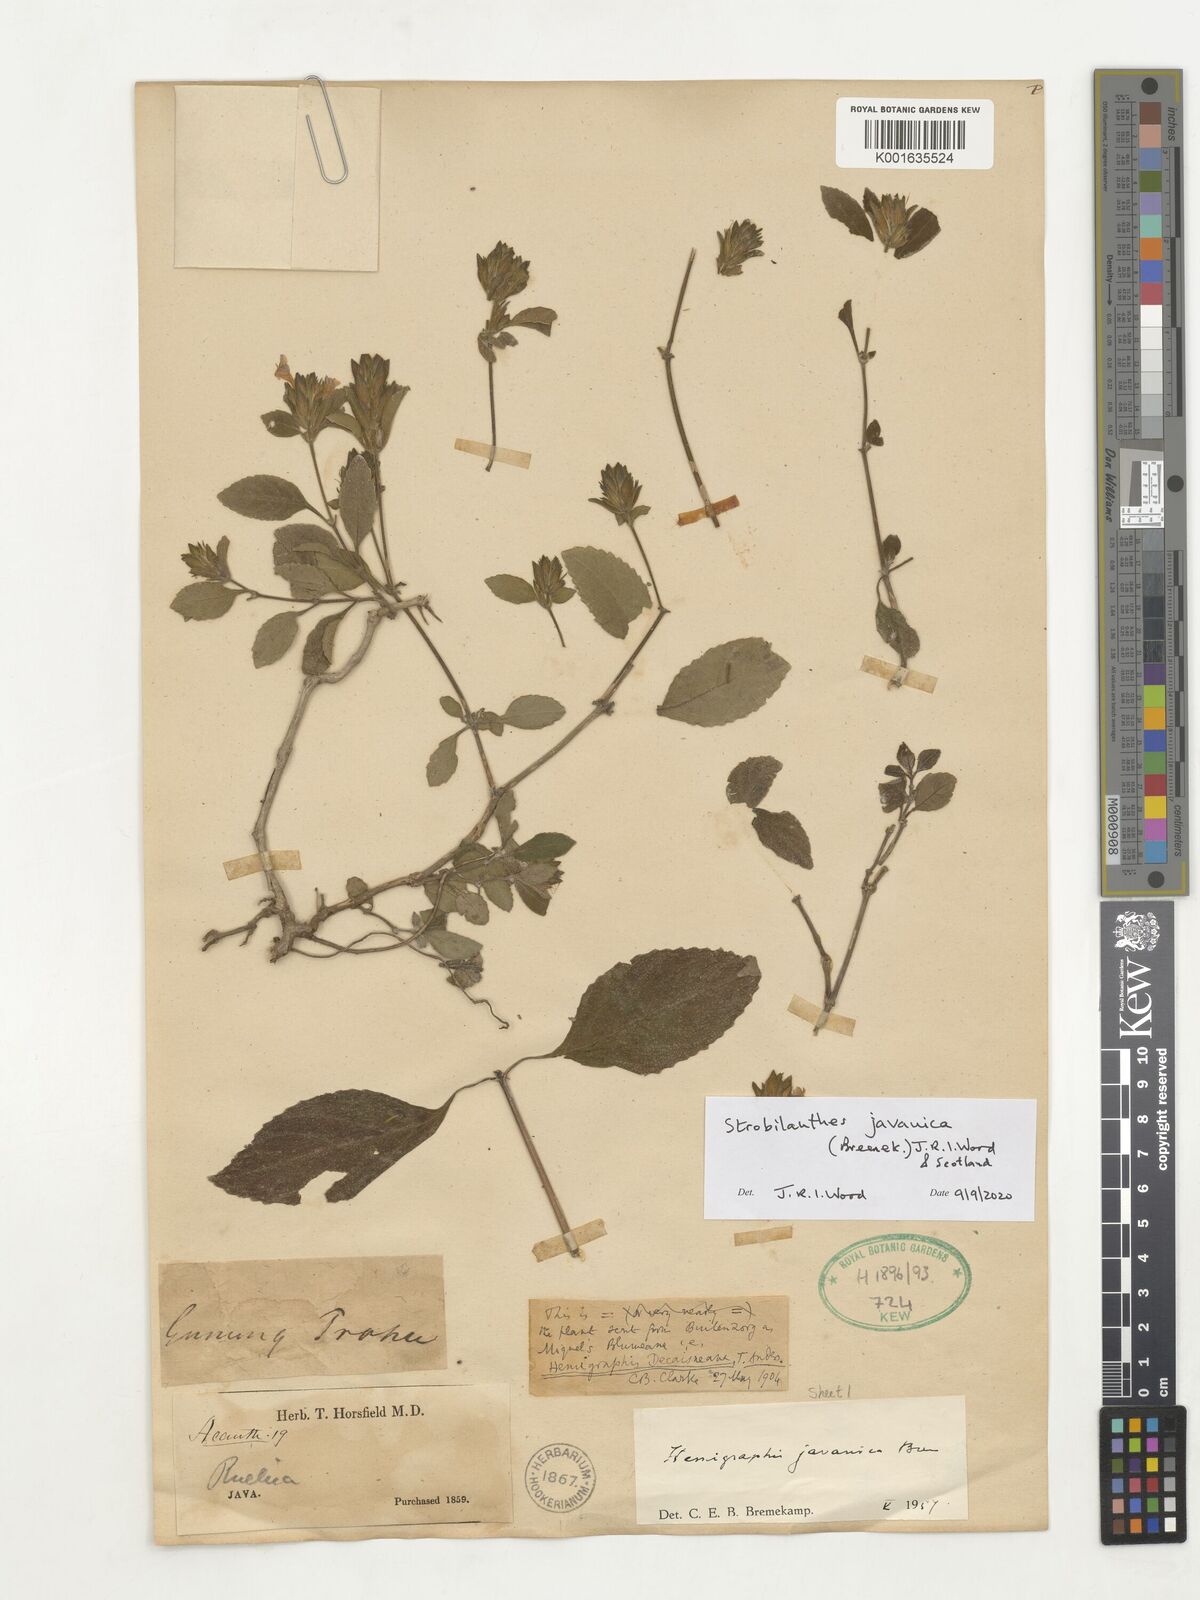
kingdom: Plantae
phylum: Tracheophyta
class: Magnoliopsida
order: Lamiales
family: Acanthaceae
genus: Strobilanthes
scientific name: Strobilanthes
